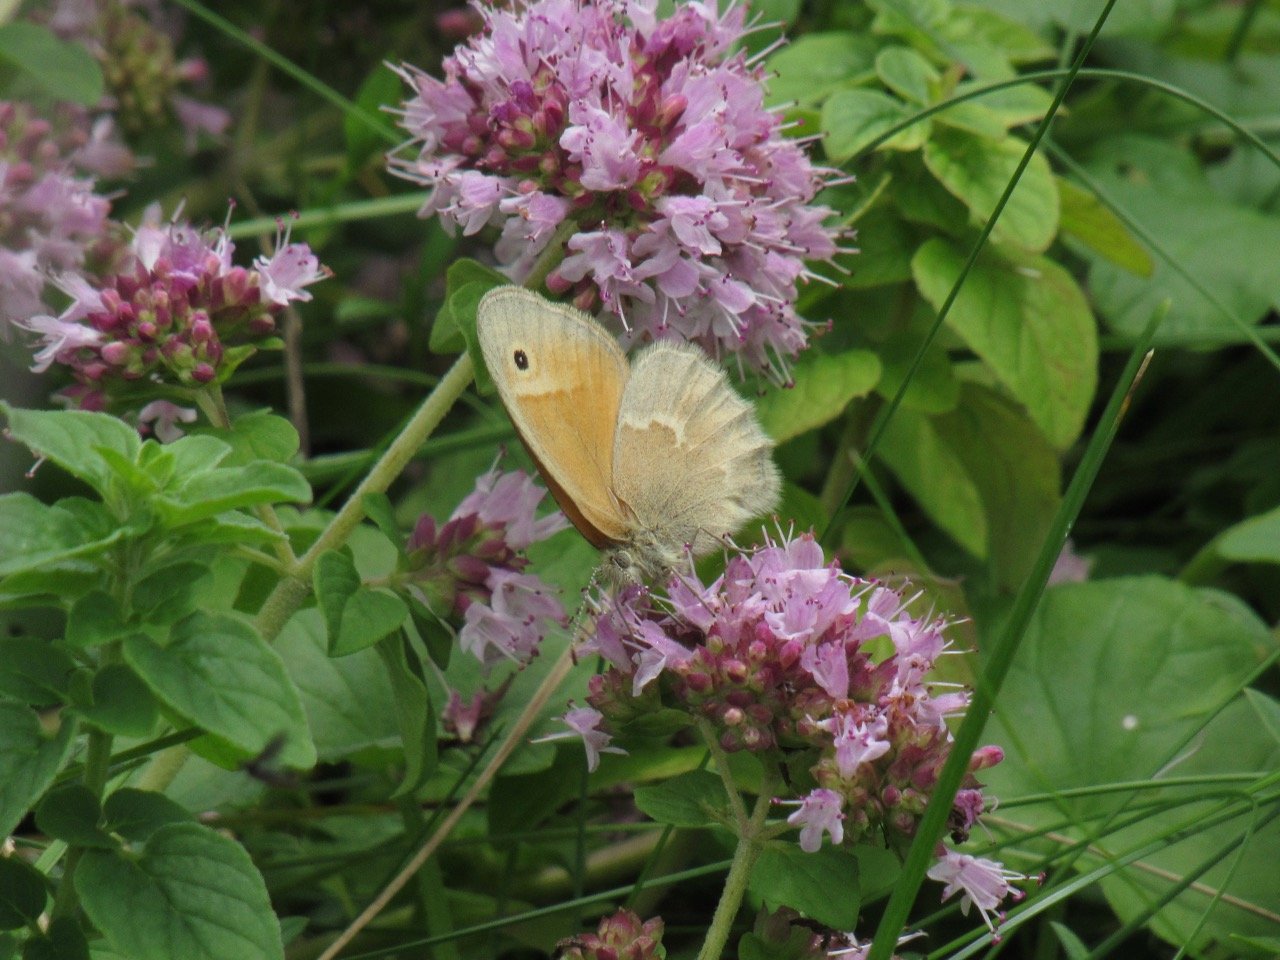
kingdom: Animalia
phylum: Arthropoda
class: Insecta
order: Lepidoptera
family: Nymphalidae
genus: Coenonympha
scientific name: Coenonympha tullia
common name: Large Heath
